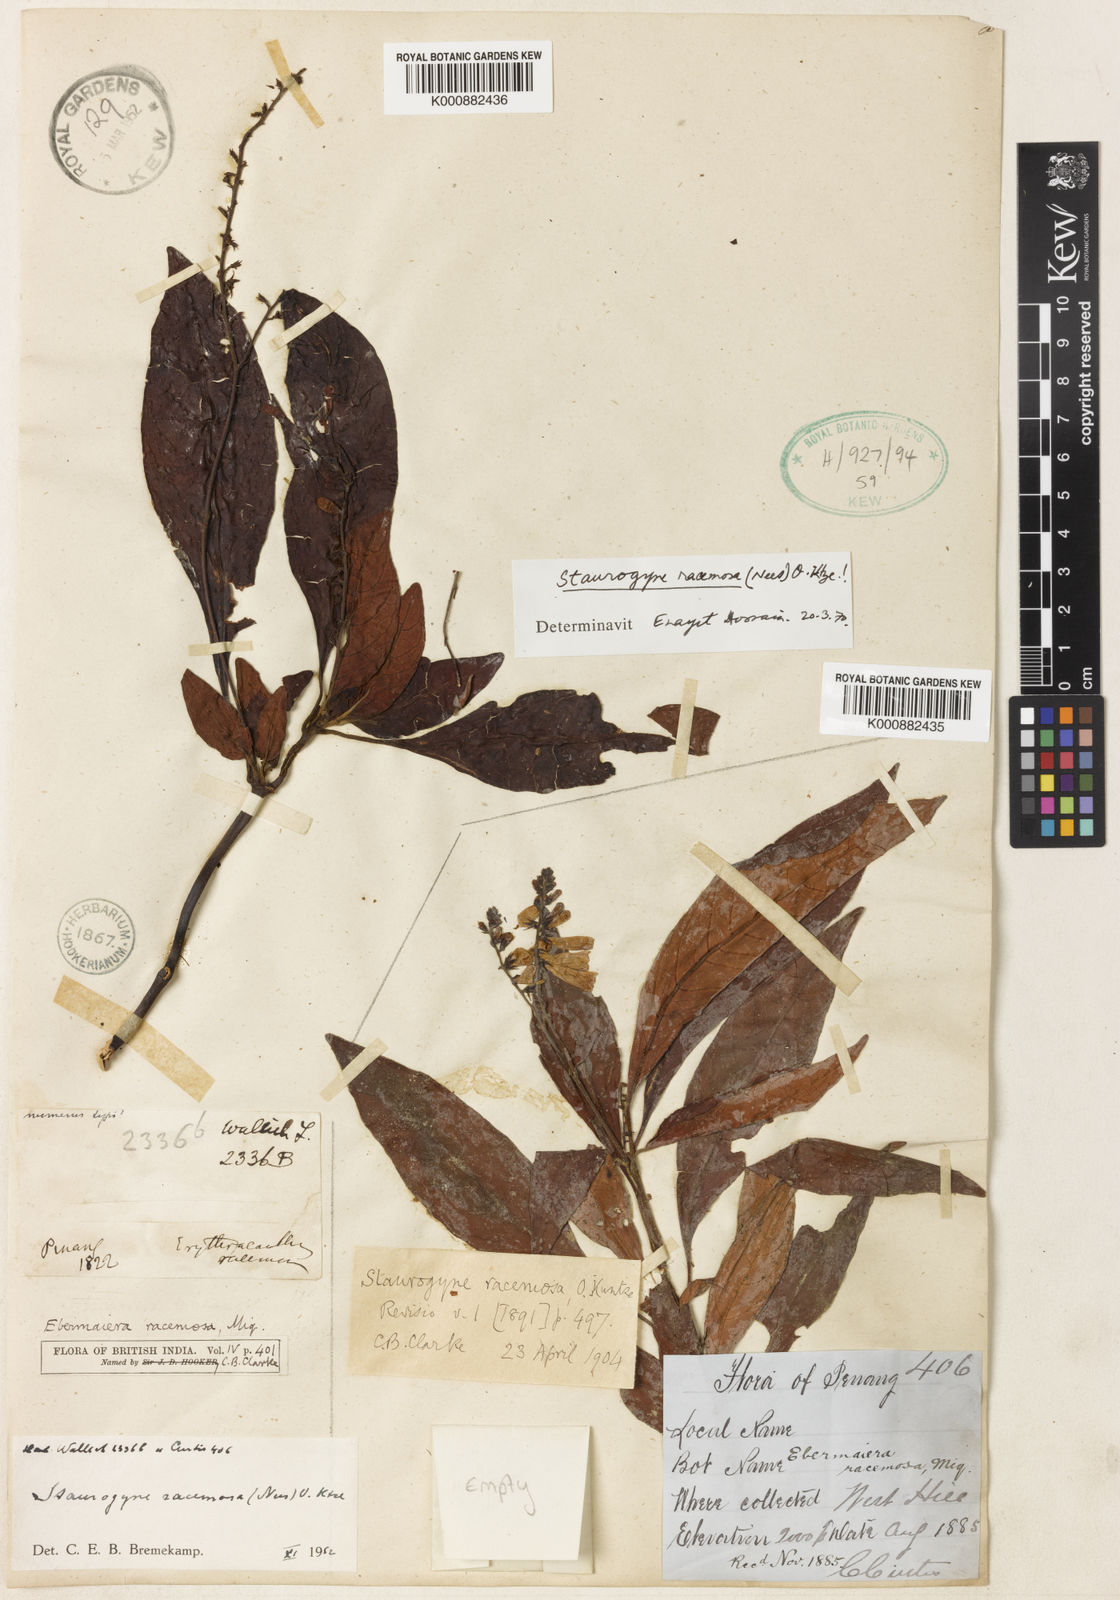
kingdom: Plantae
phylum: Tracheophyta
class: Magnoliopsida
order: Lamiales
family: Acanthaceae
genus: Staurogyne
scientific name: Staurogyne racemosa
